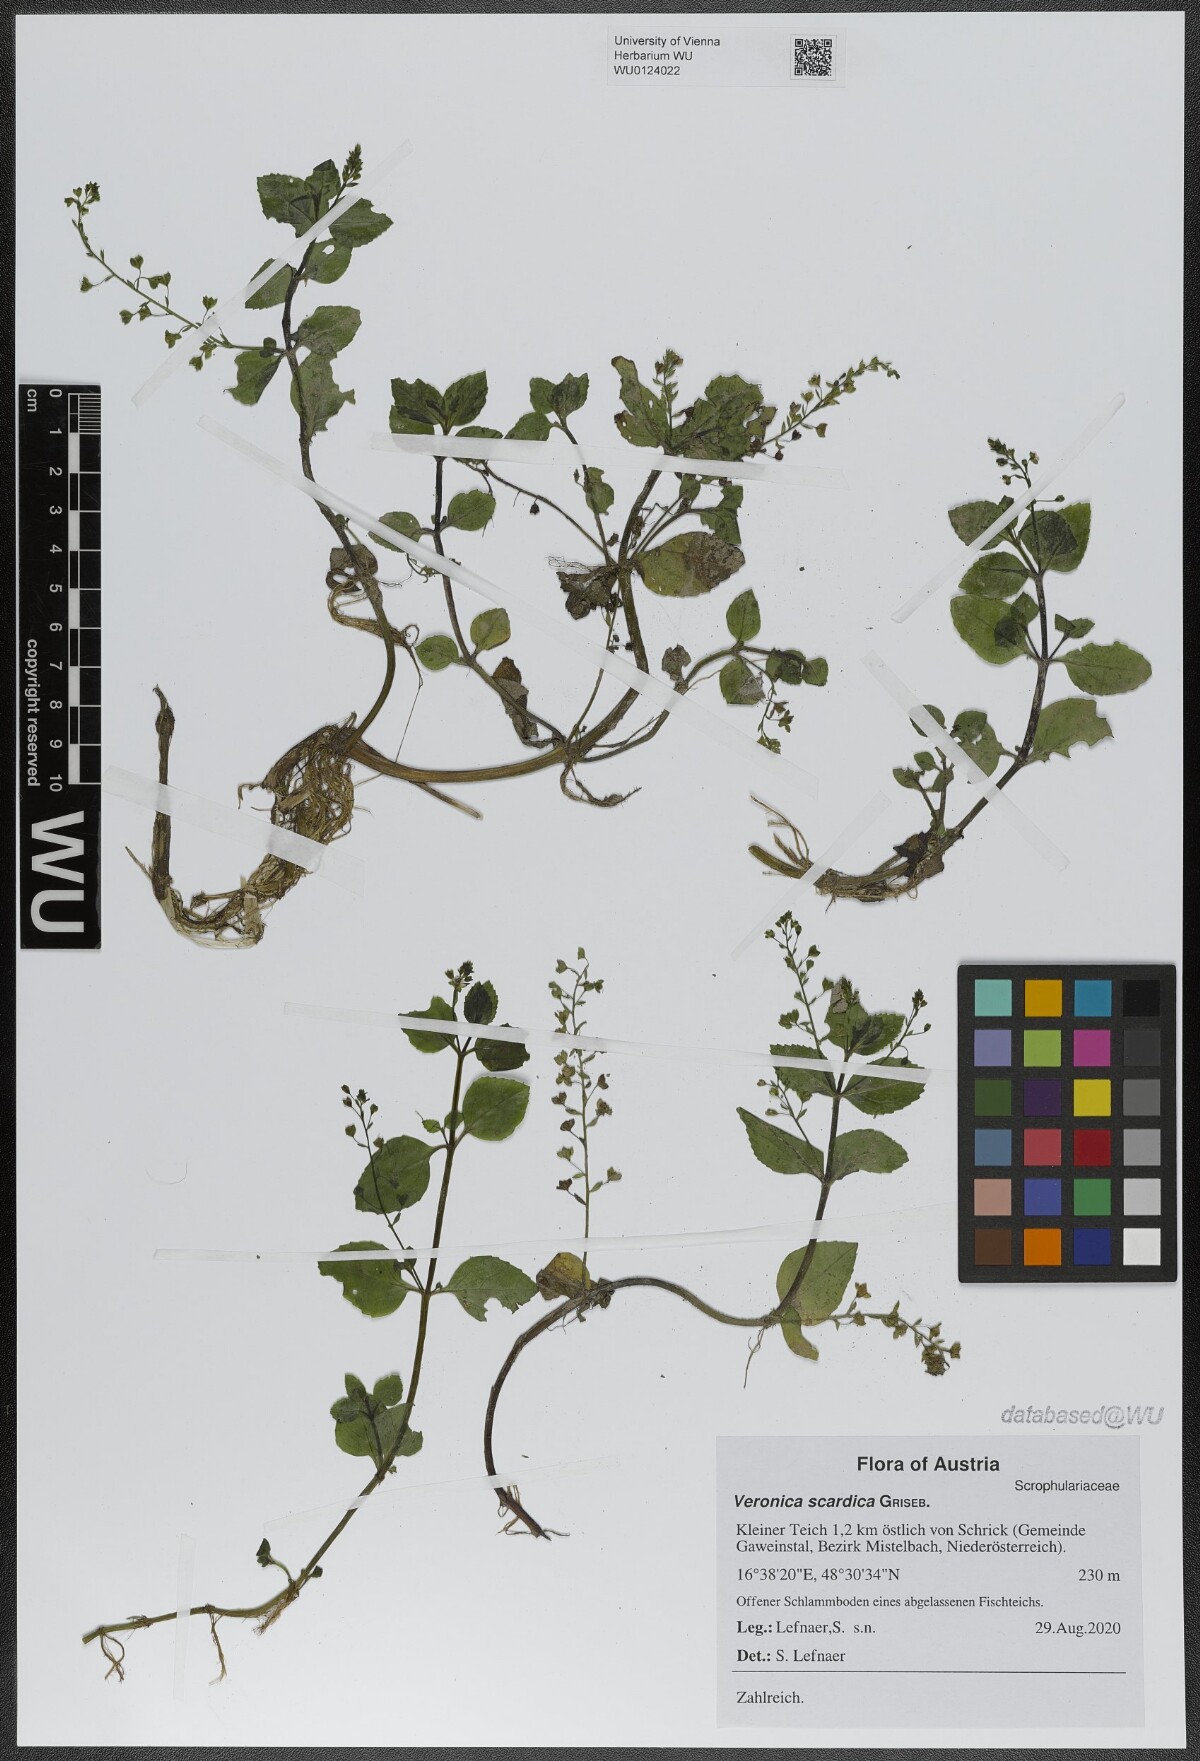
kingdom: Plantae
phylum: Tracheophyta
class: Magnoliopsida
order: Lamiales
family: Plantaginaceae
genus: Veronica
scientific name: Veronica scardica
